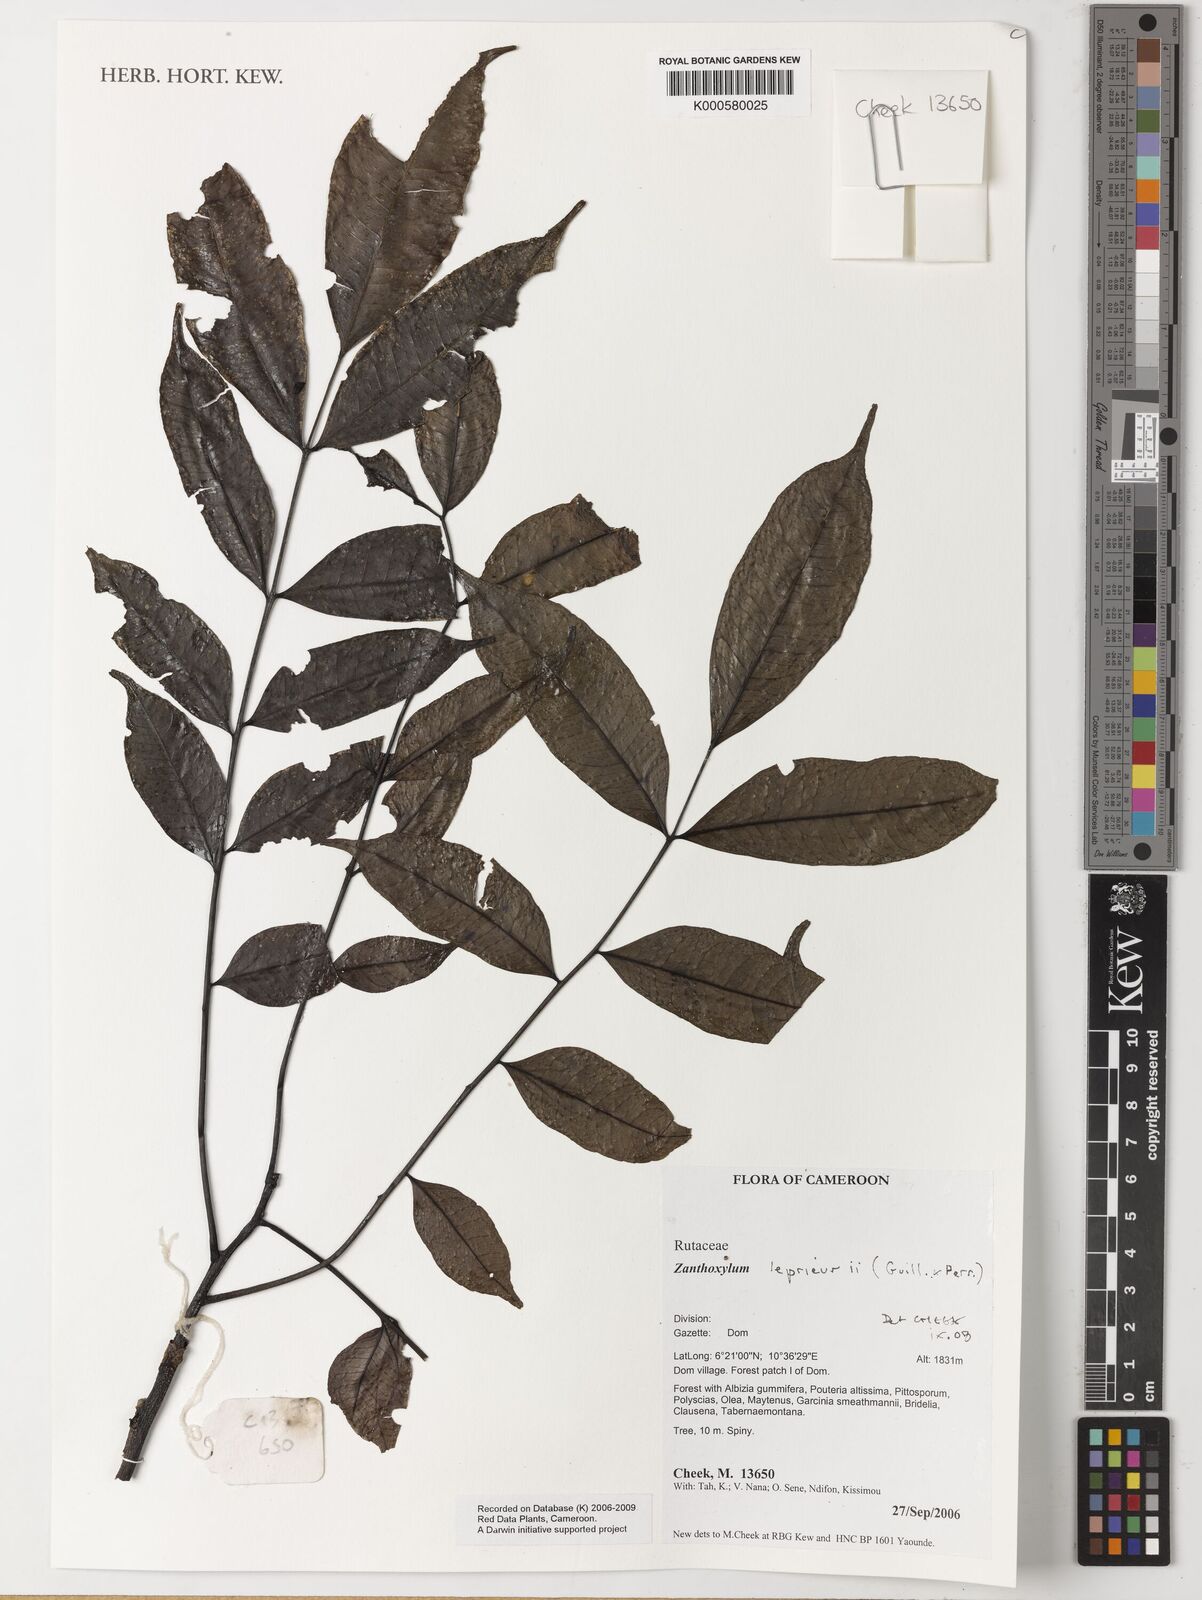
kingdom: Plantae
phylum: Tracheophyta
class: Magnoliopsida
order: Sapindales
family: Rutaceae
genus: Zanthoxylum
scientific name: Zanthoxylum leprieurii
